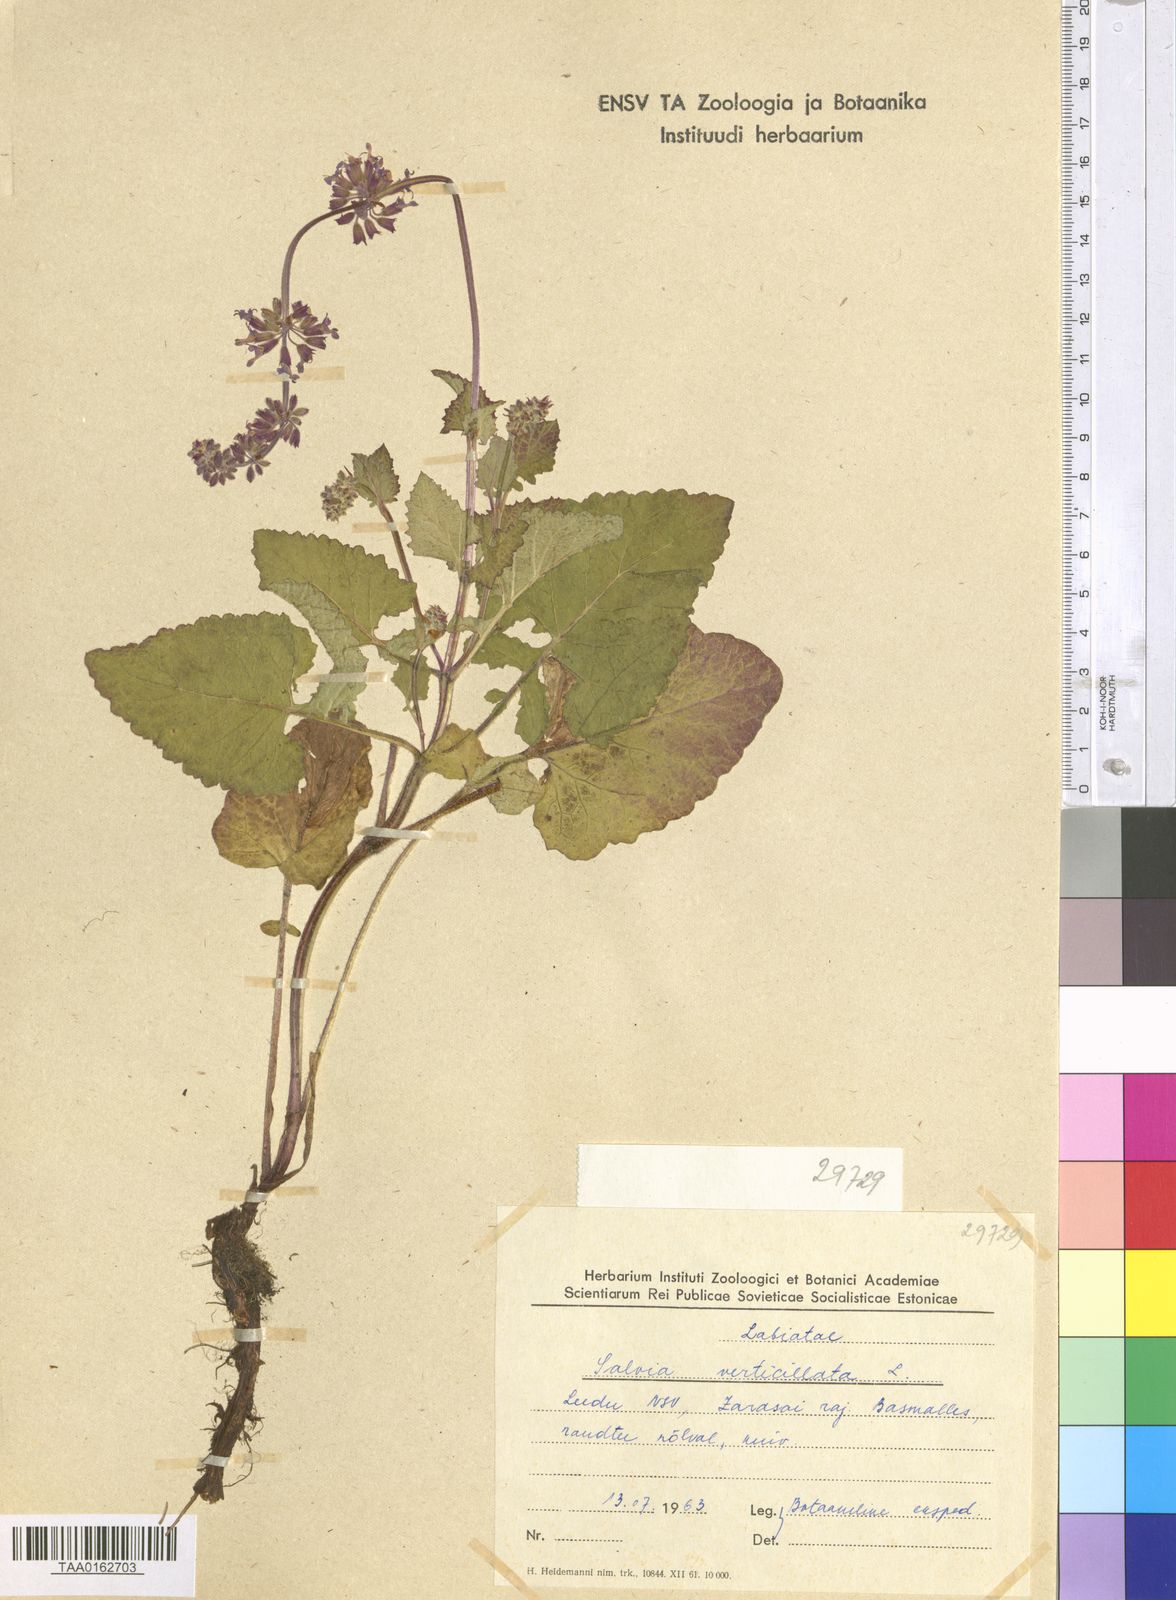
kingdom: Plantae
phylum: Tracheophyta
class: Magnoliopsida
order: Lamiales
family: Lamiaceae
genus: Salvia
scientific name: Salvia verticillata
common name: Whorled clary
